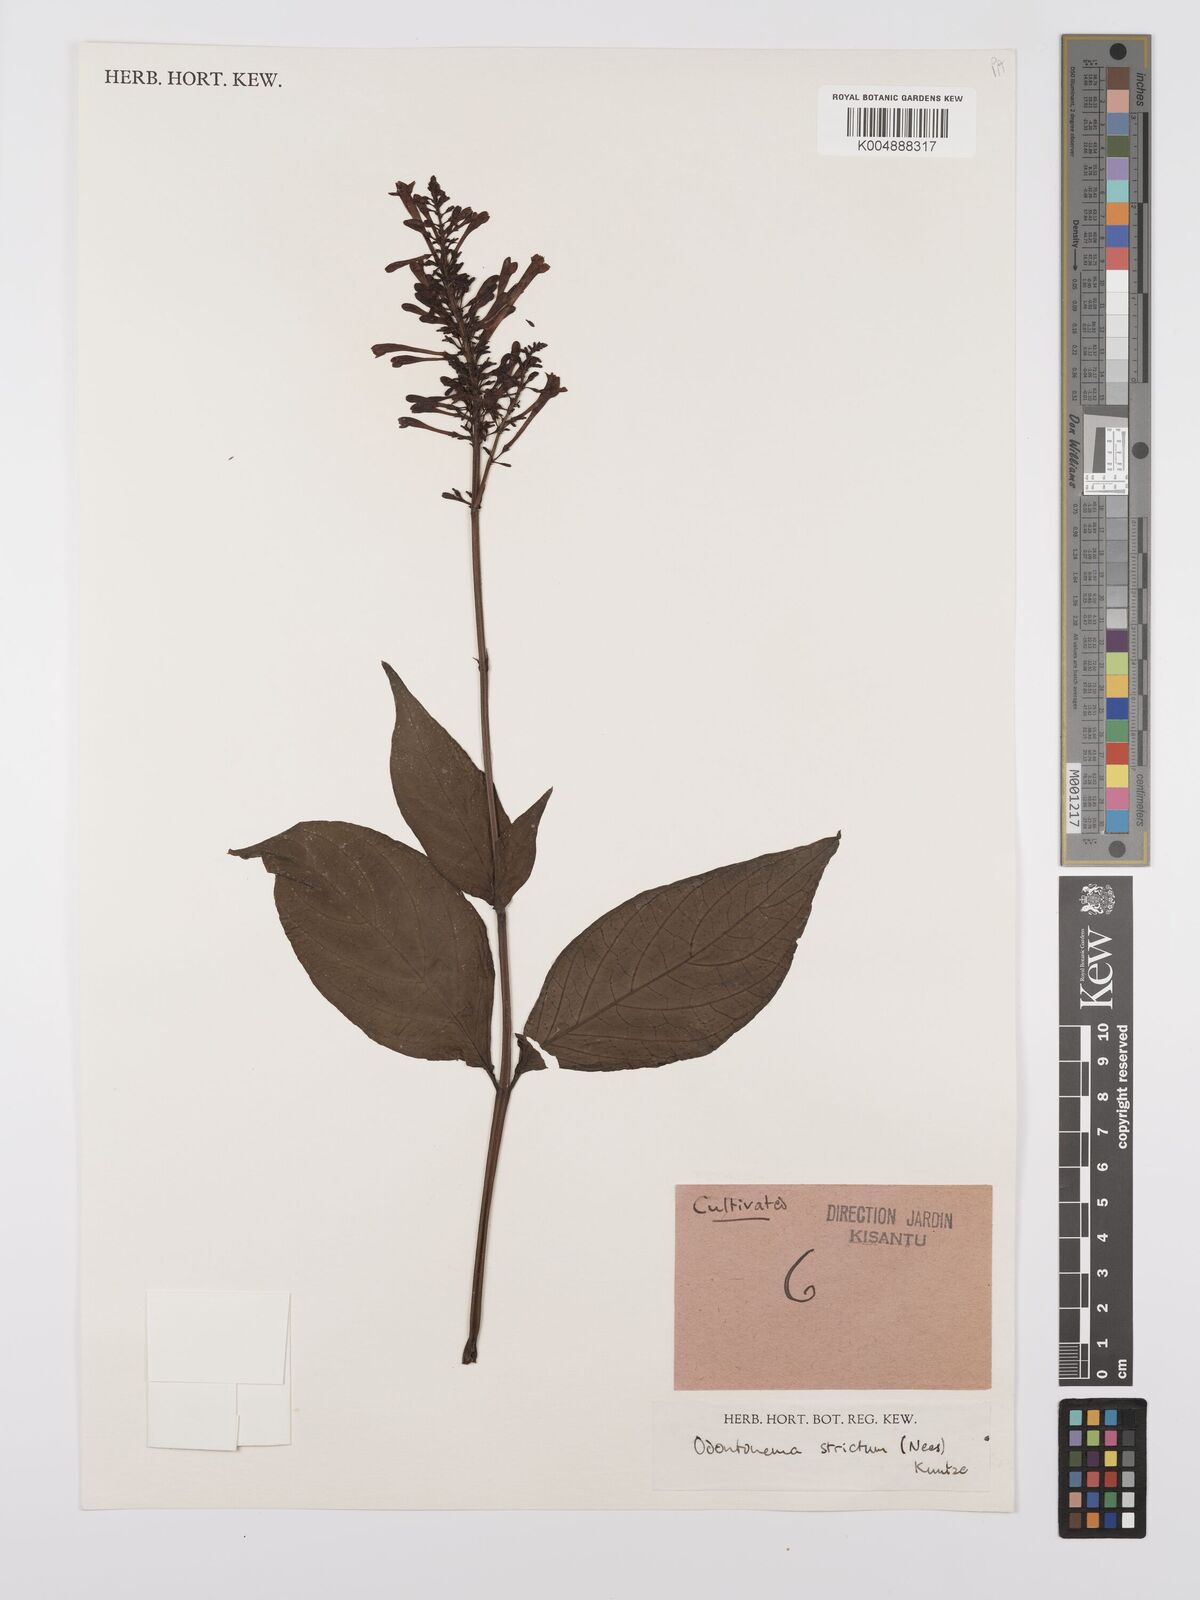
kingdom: Plantae
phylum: Tracheophyta
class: Magnoliopsida
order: Lamiales
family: Acanthaceae
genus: Odontonema
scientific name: Odontonema cuspidatum
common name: Mottled toothedthread
